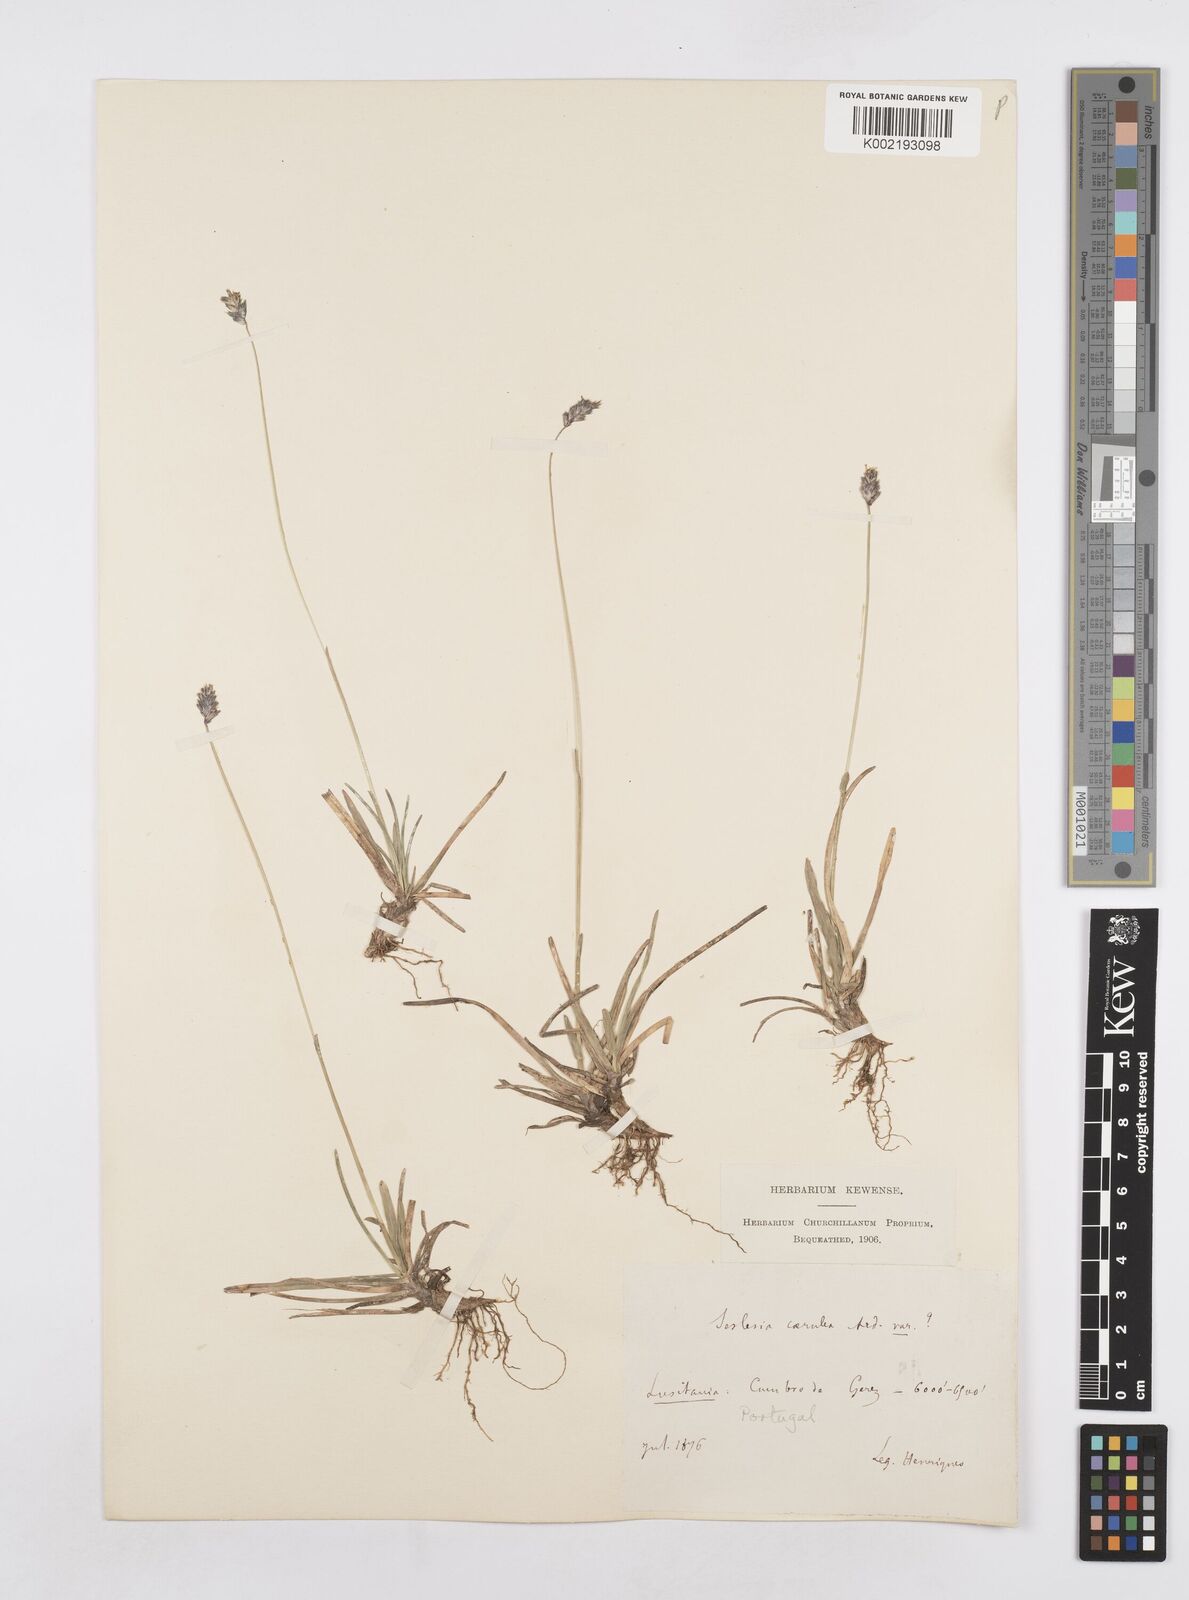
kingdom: Plantae
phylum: Tracheophyta
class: Liliopsida
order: Poales
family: Poaceae
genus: Sesleria
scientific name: Sesleria
